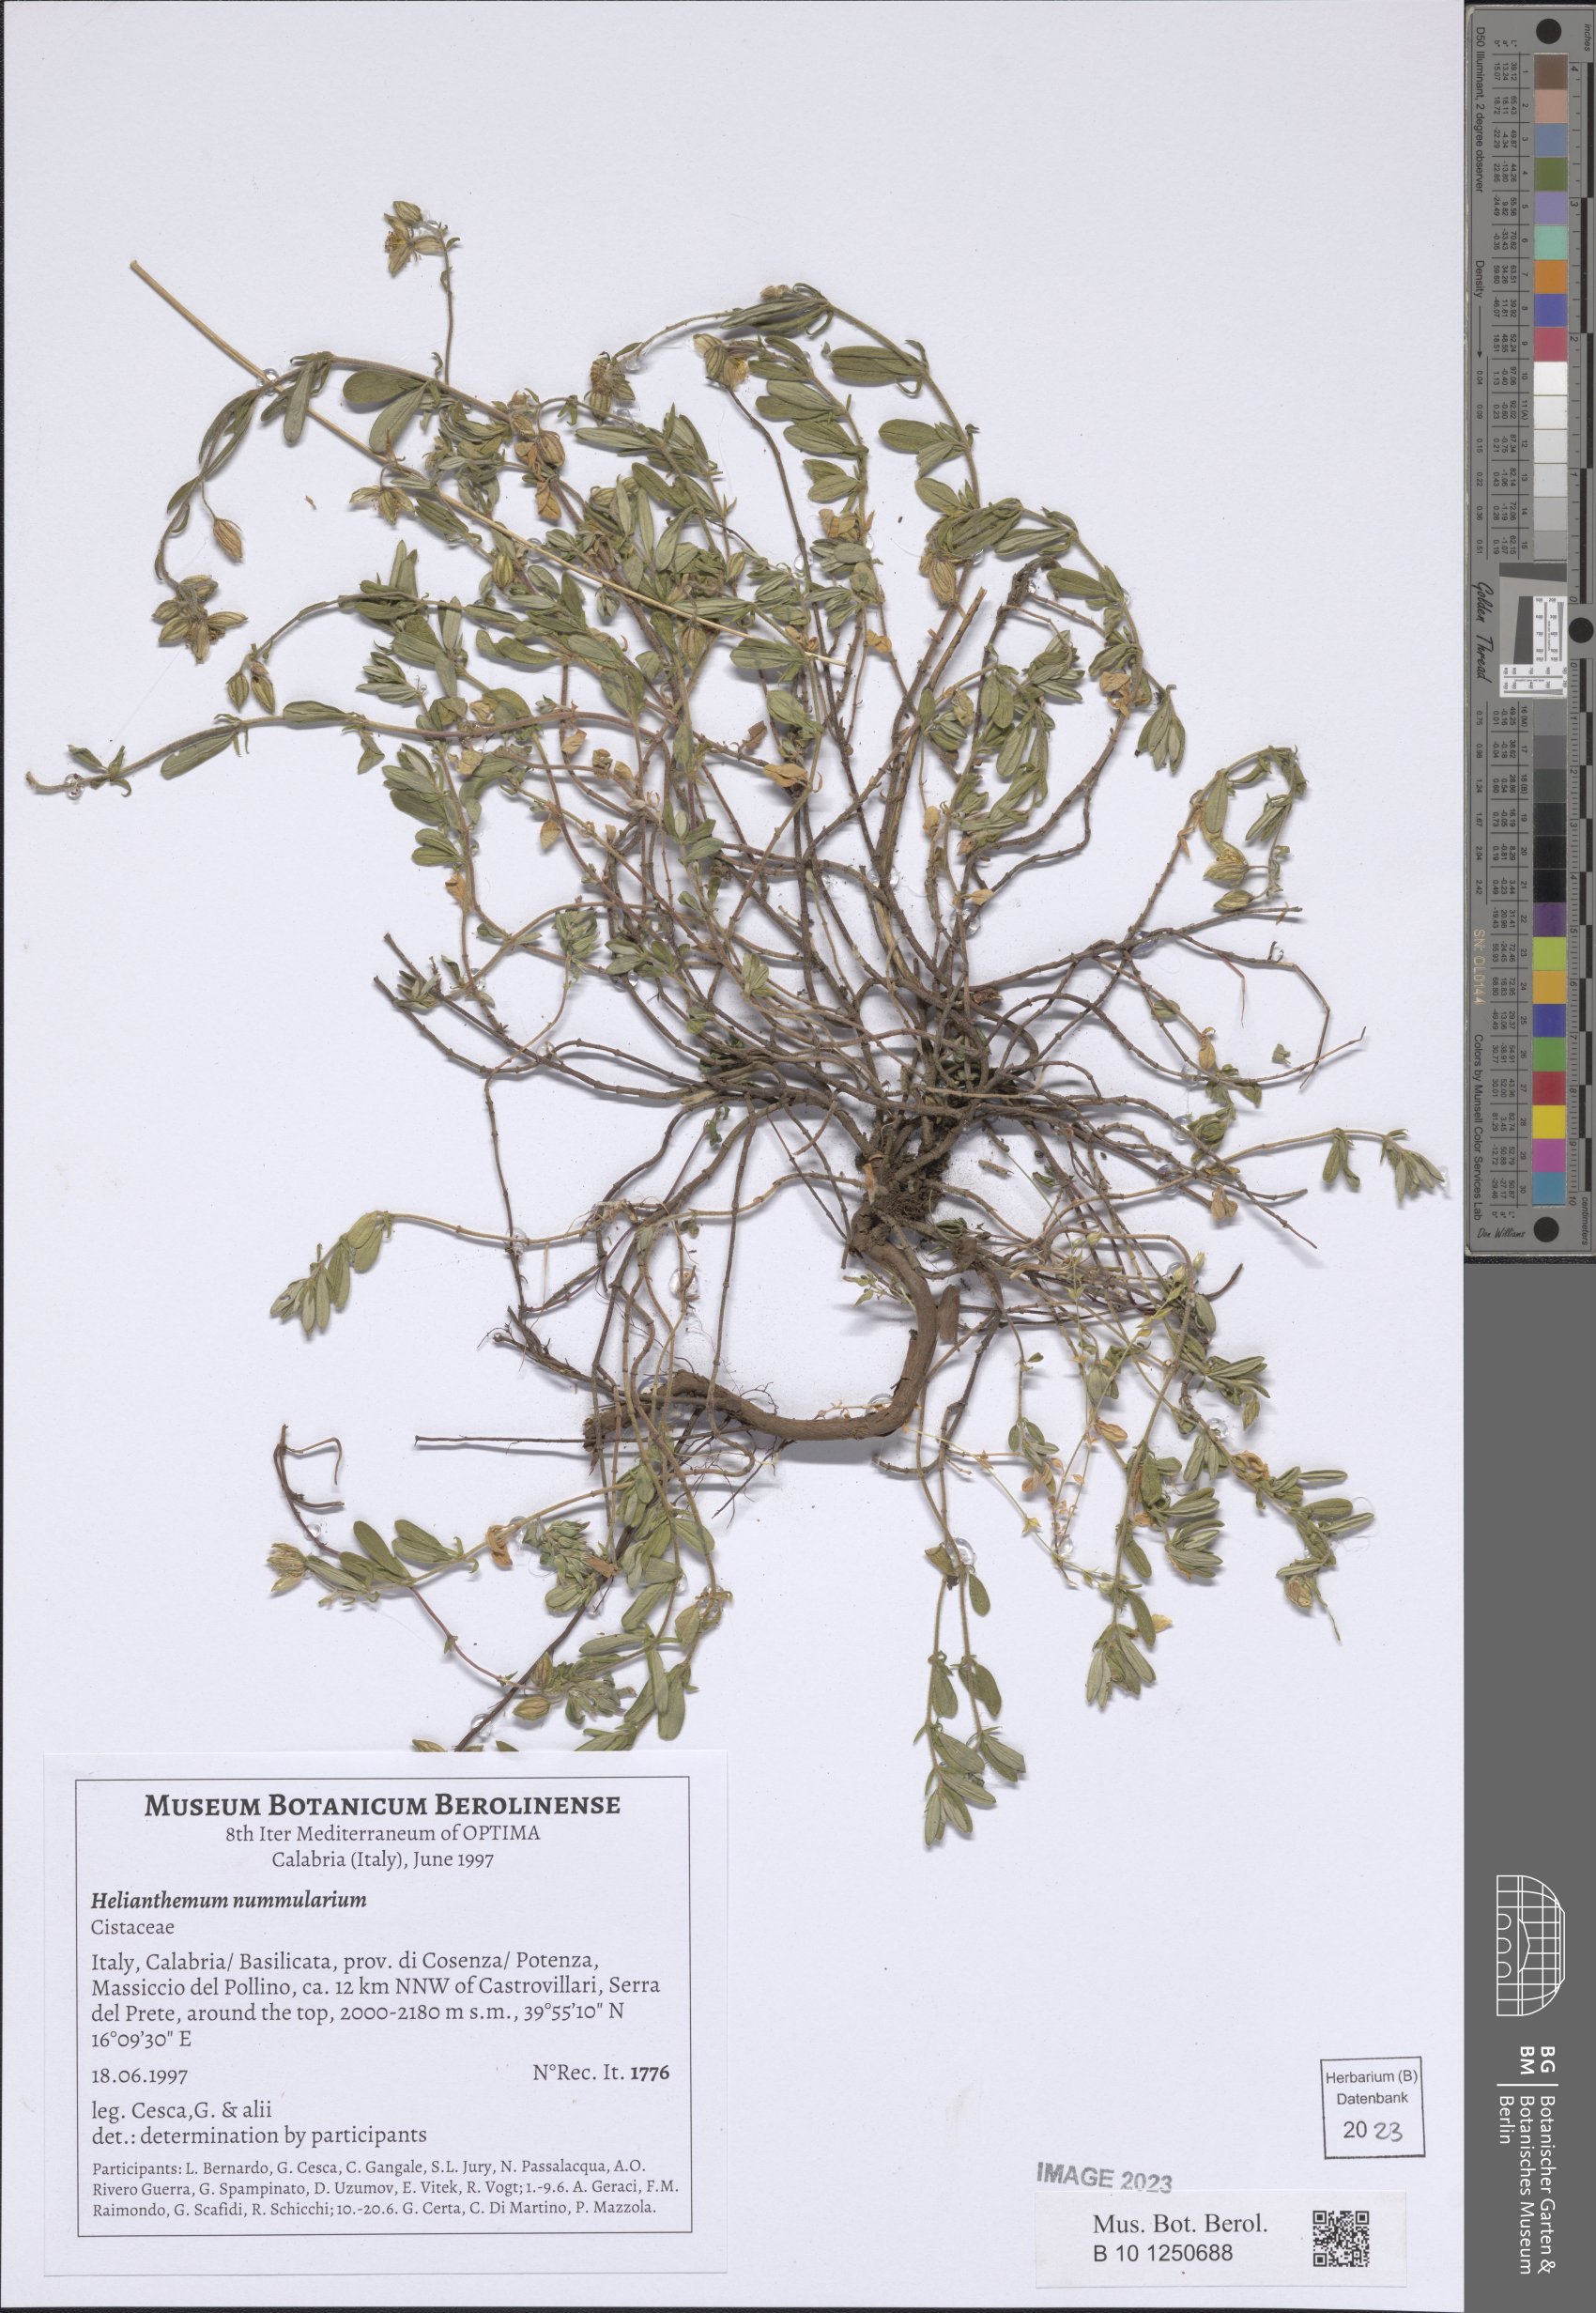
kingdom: Plantae
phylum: Tracheophyta
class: Magnoliopsida
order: Malvales
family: Cistaceae
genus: Helianthemum
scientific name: Helianthemum nummularium
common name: Common rock-rose
